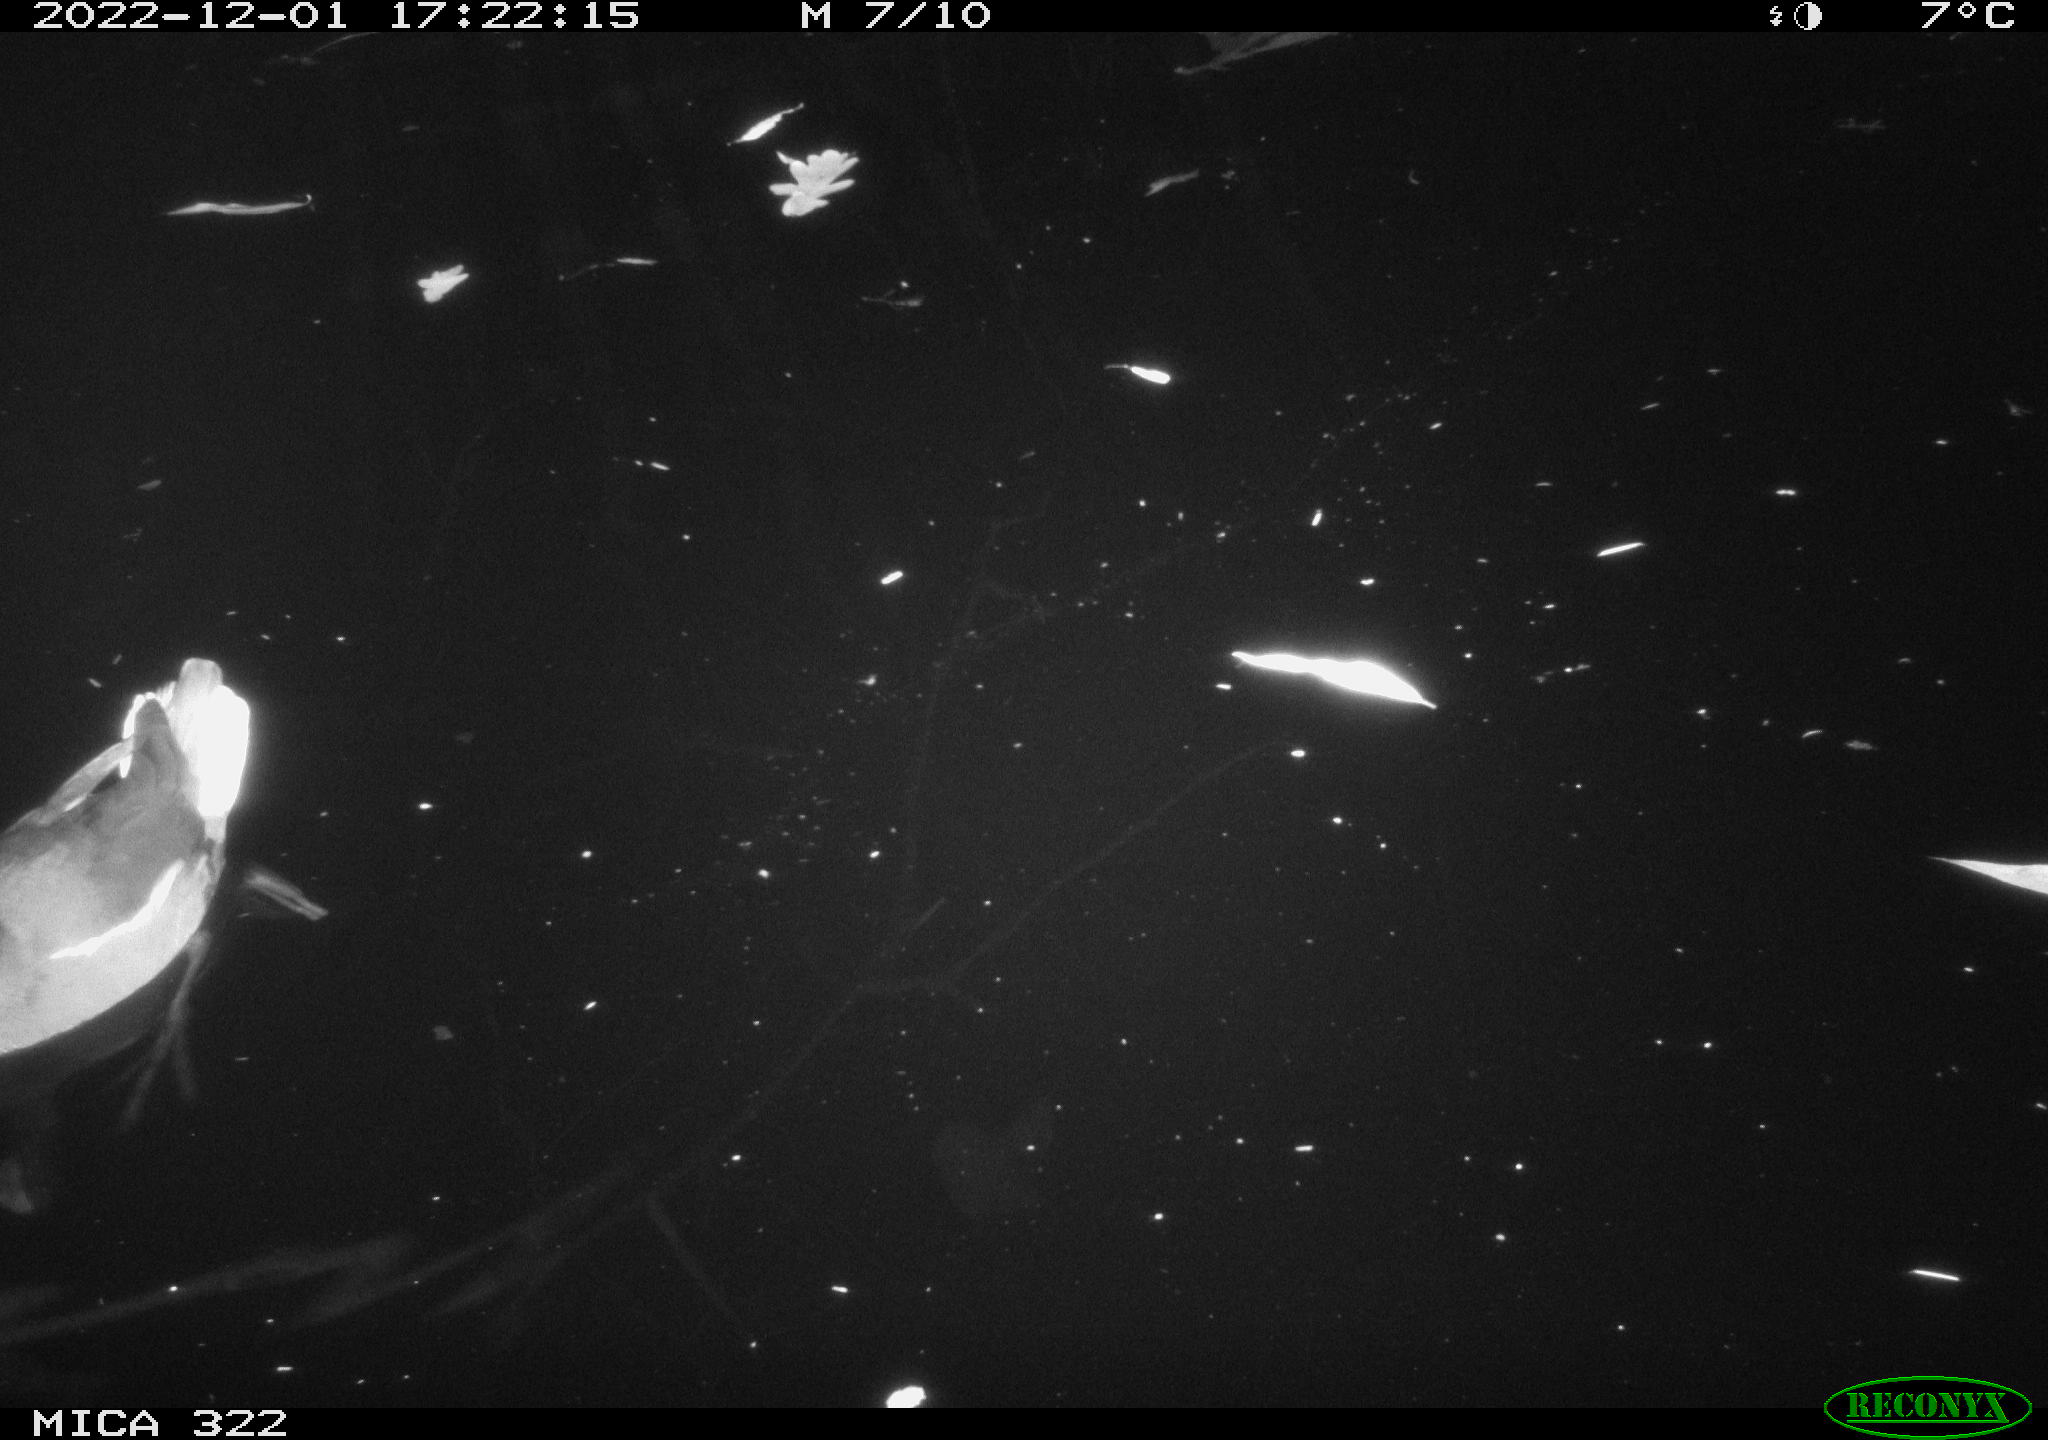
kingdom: Animalia
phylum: Chordata
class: Aves
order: Gruiformes
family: Rallidae
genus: Fulica
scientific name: Fulica atra
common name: Eurasian coot
